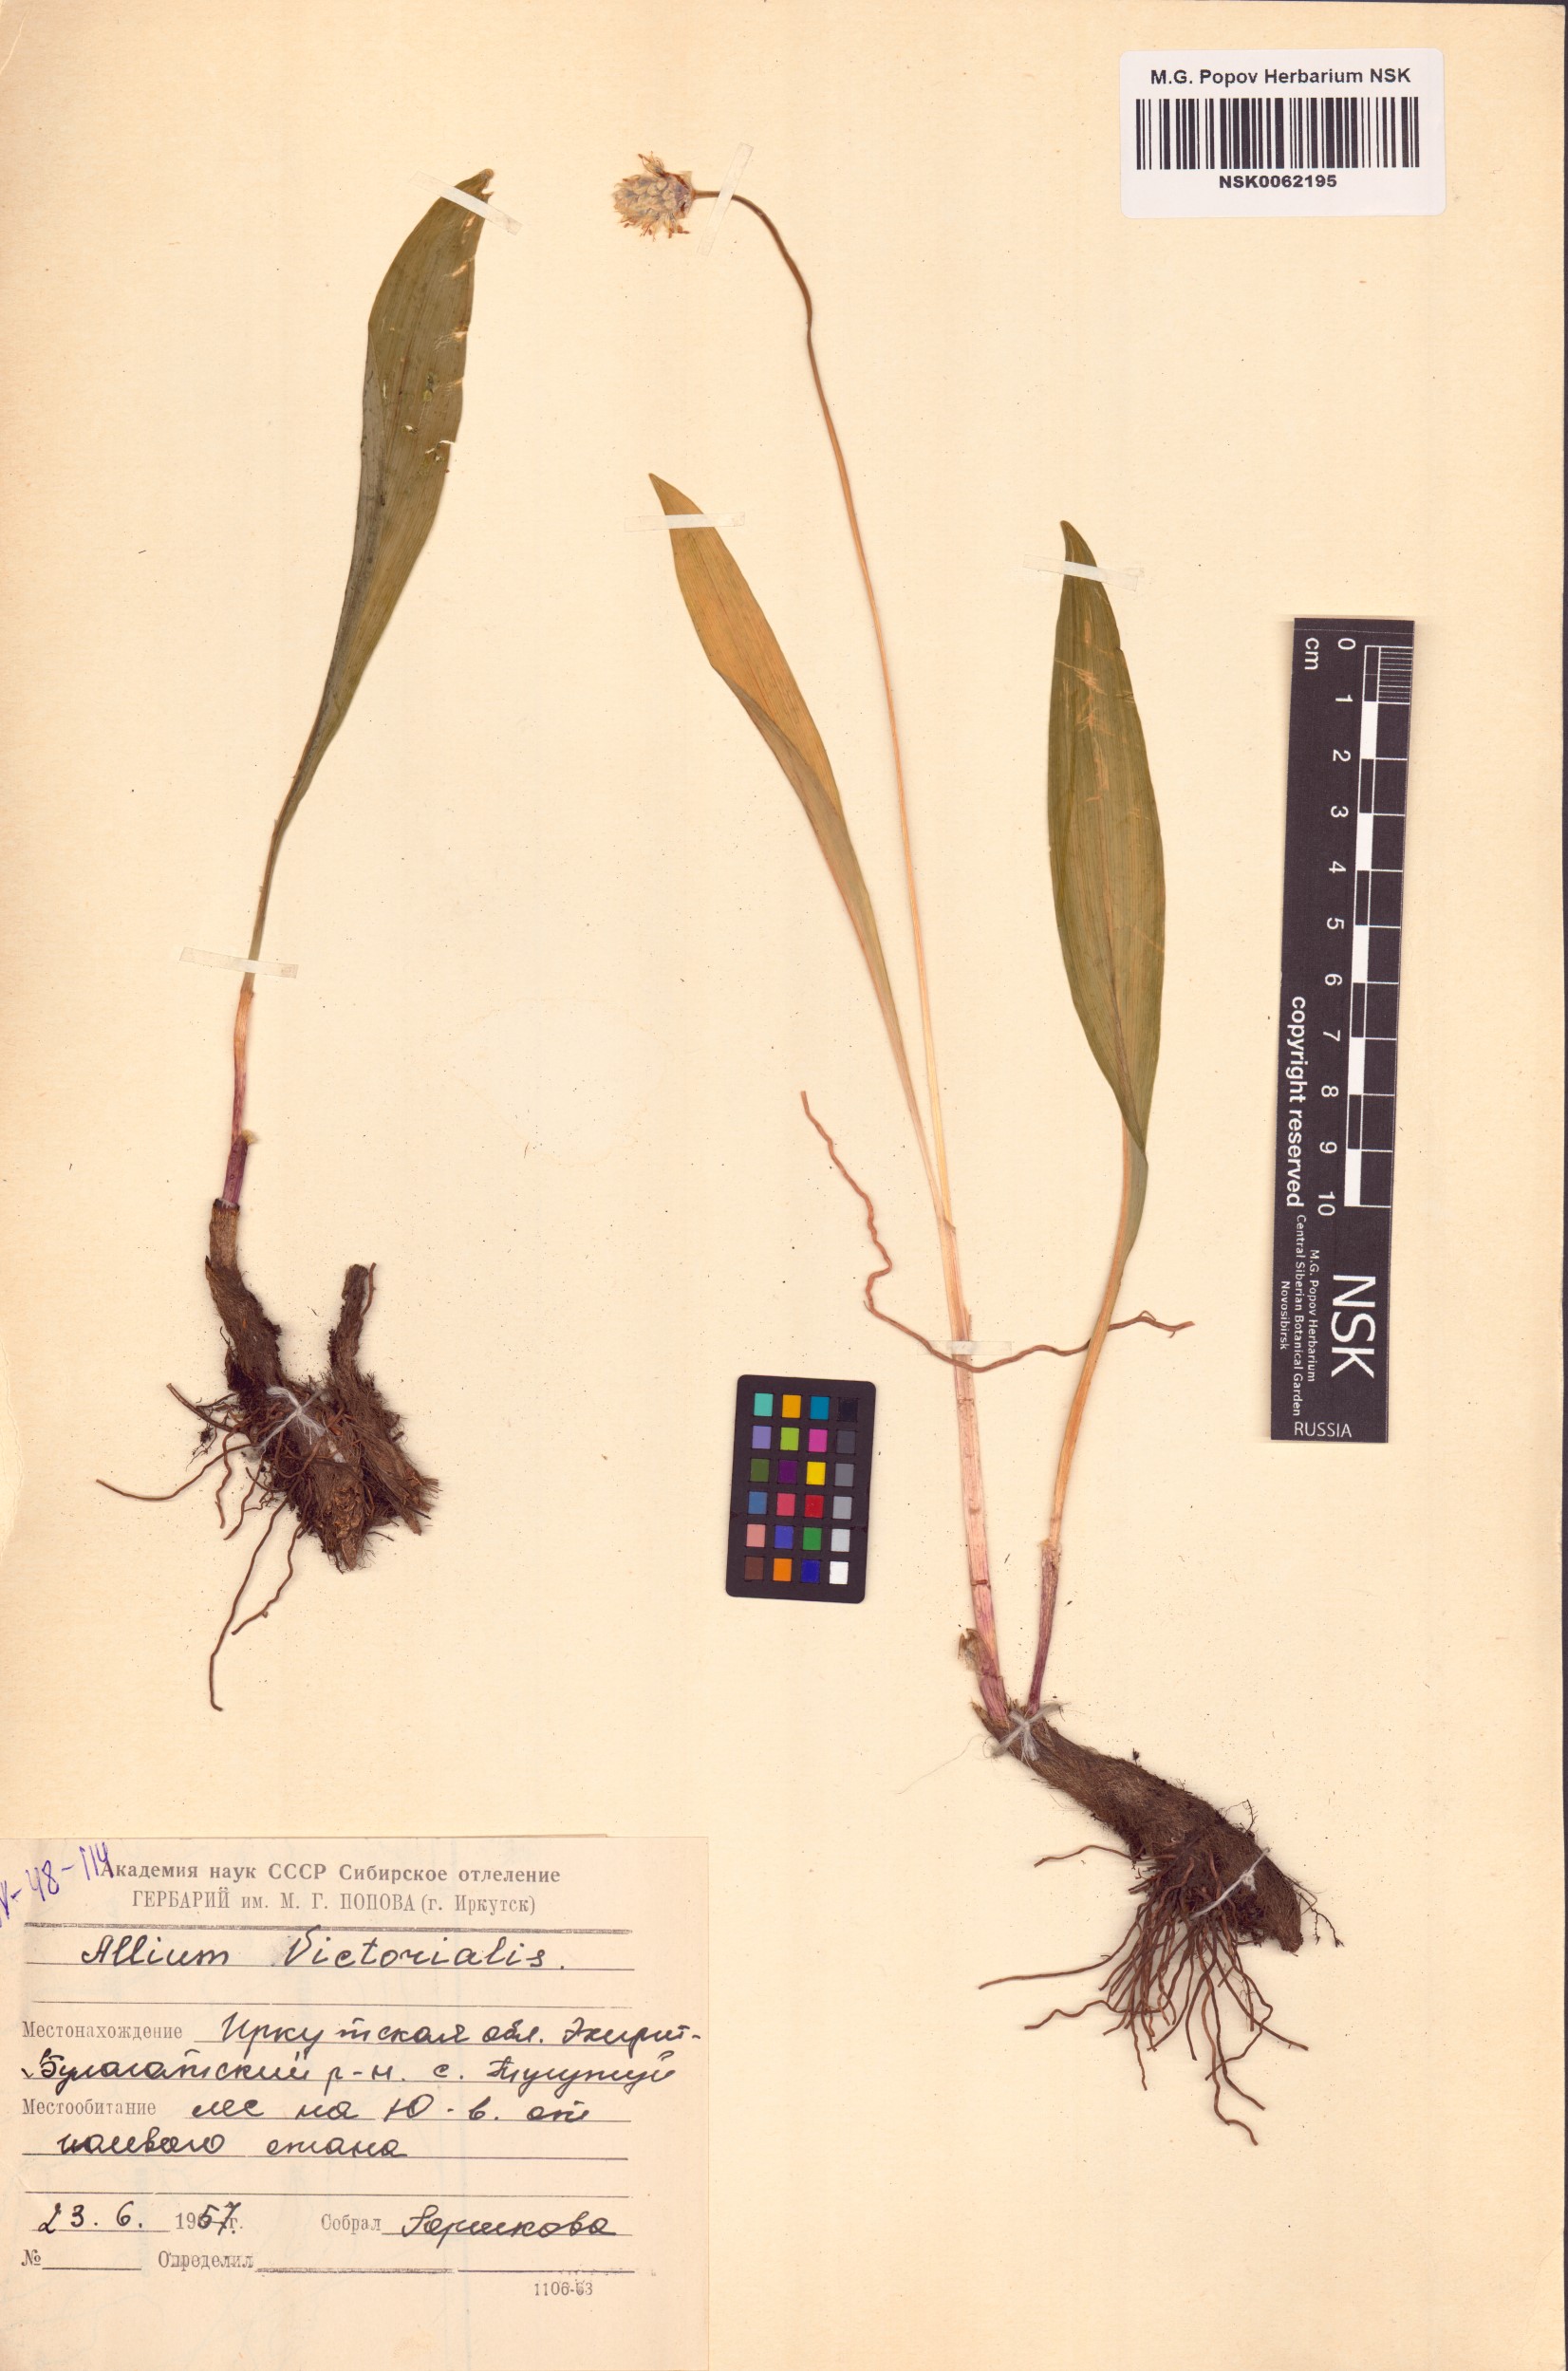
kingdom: Plantae
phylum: Tracheophyta
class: Liliopsida
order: Asparagales
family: Amaryllidaceae
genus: Allium
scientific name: Allium victorialis
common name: Alpine leek
